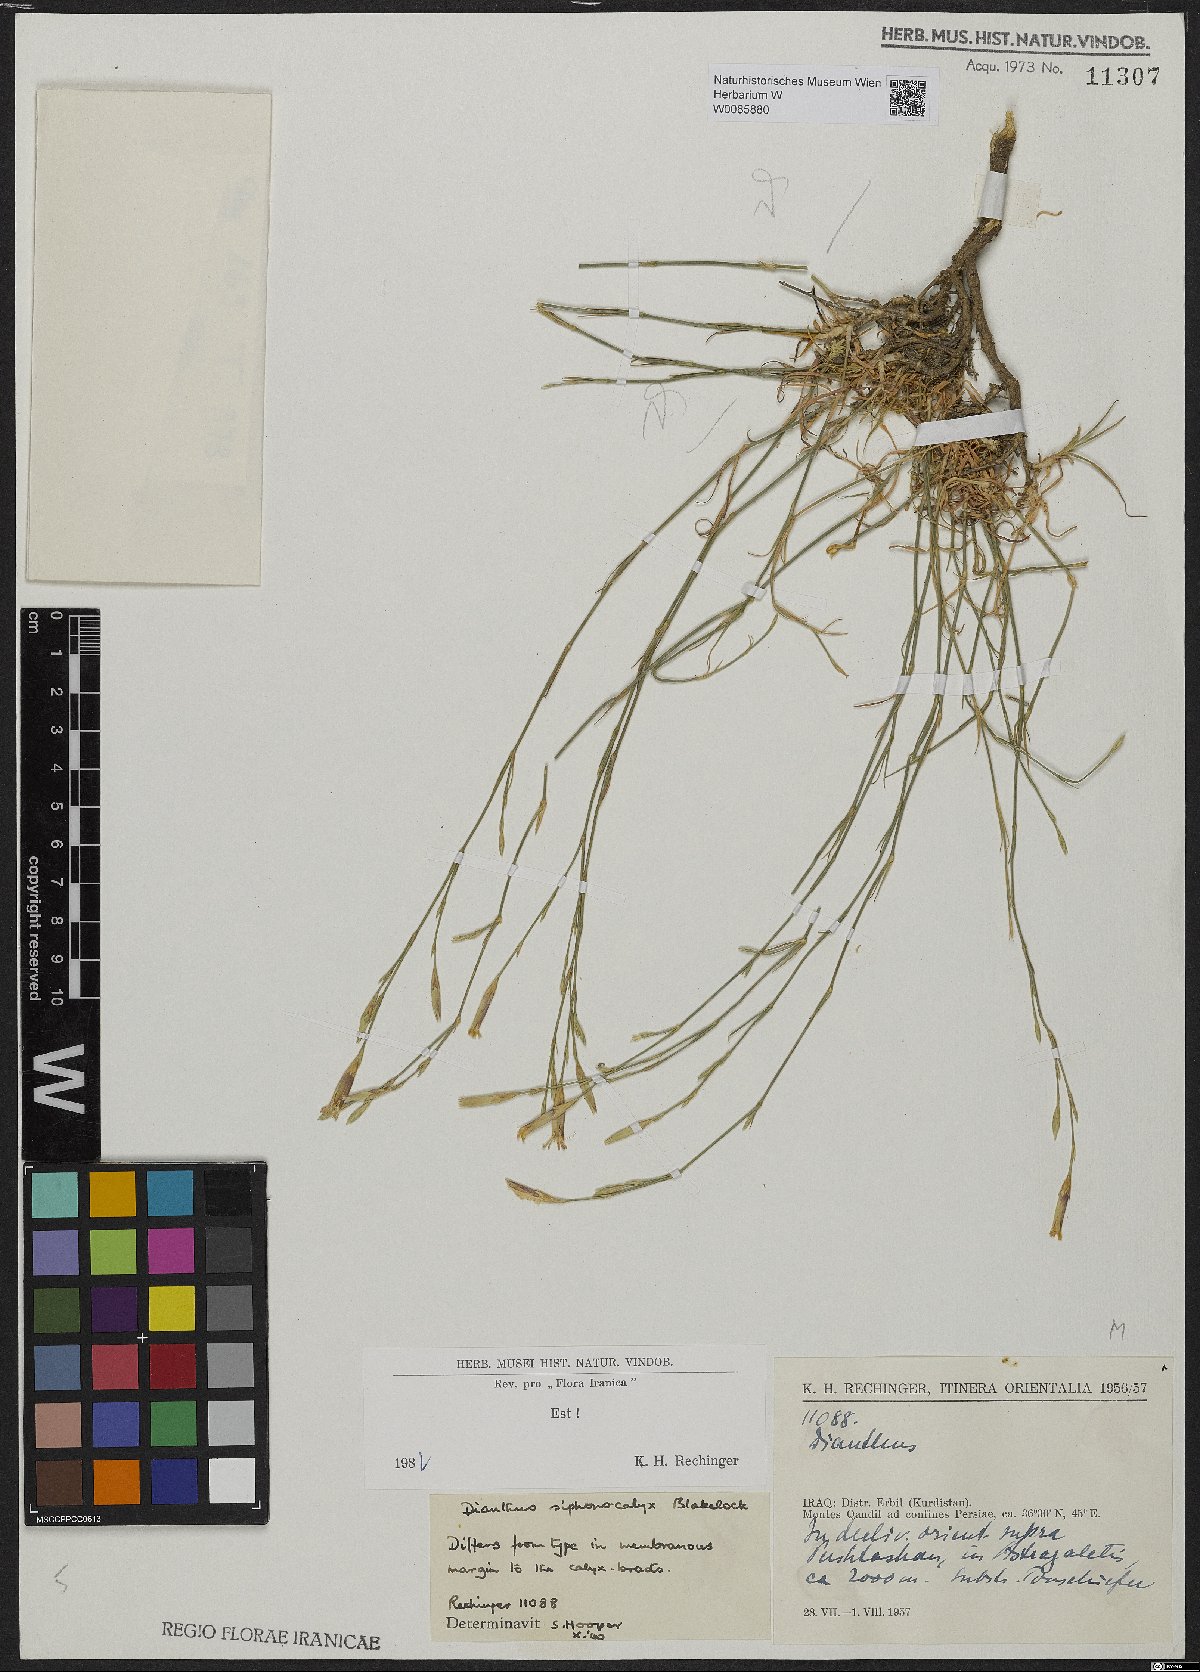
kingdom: Plantae
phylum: Tracheophyta
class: Magnoliopsida
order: Caryophyllales
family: Caryophyllaceae
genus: Dianthus
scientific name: Dianthus siphonocalyx
